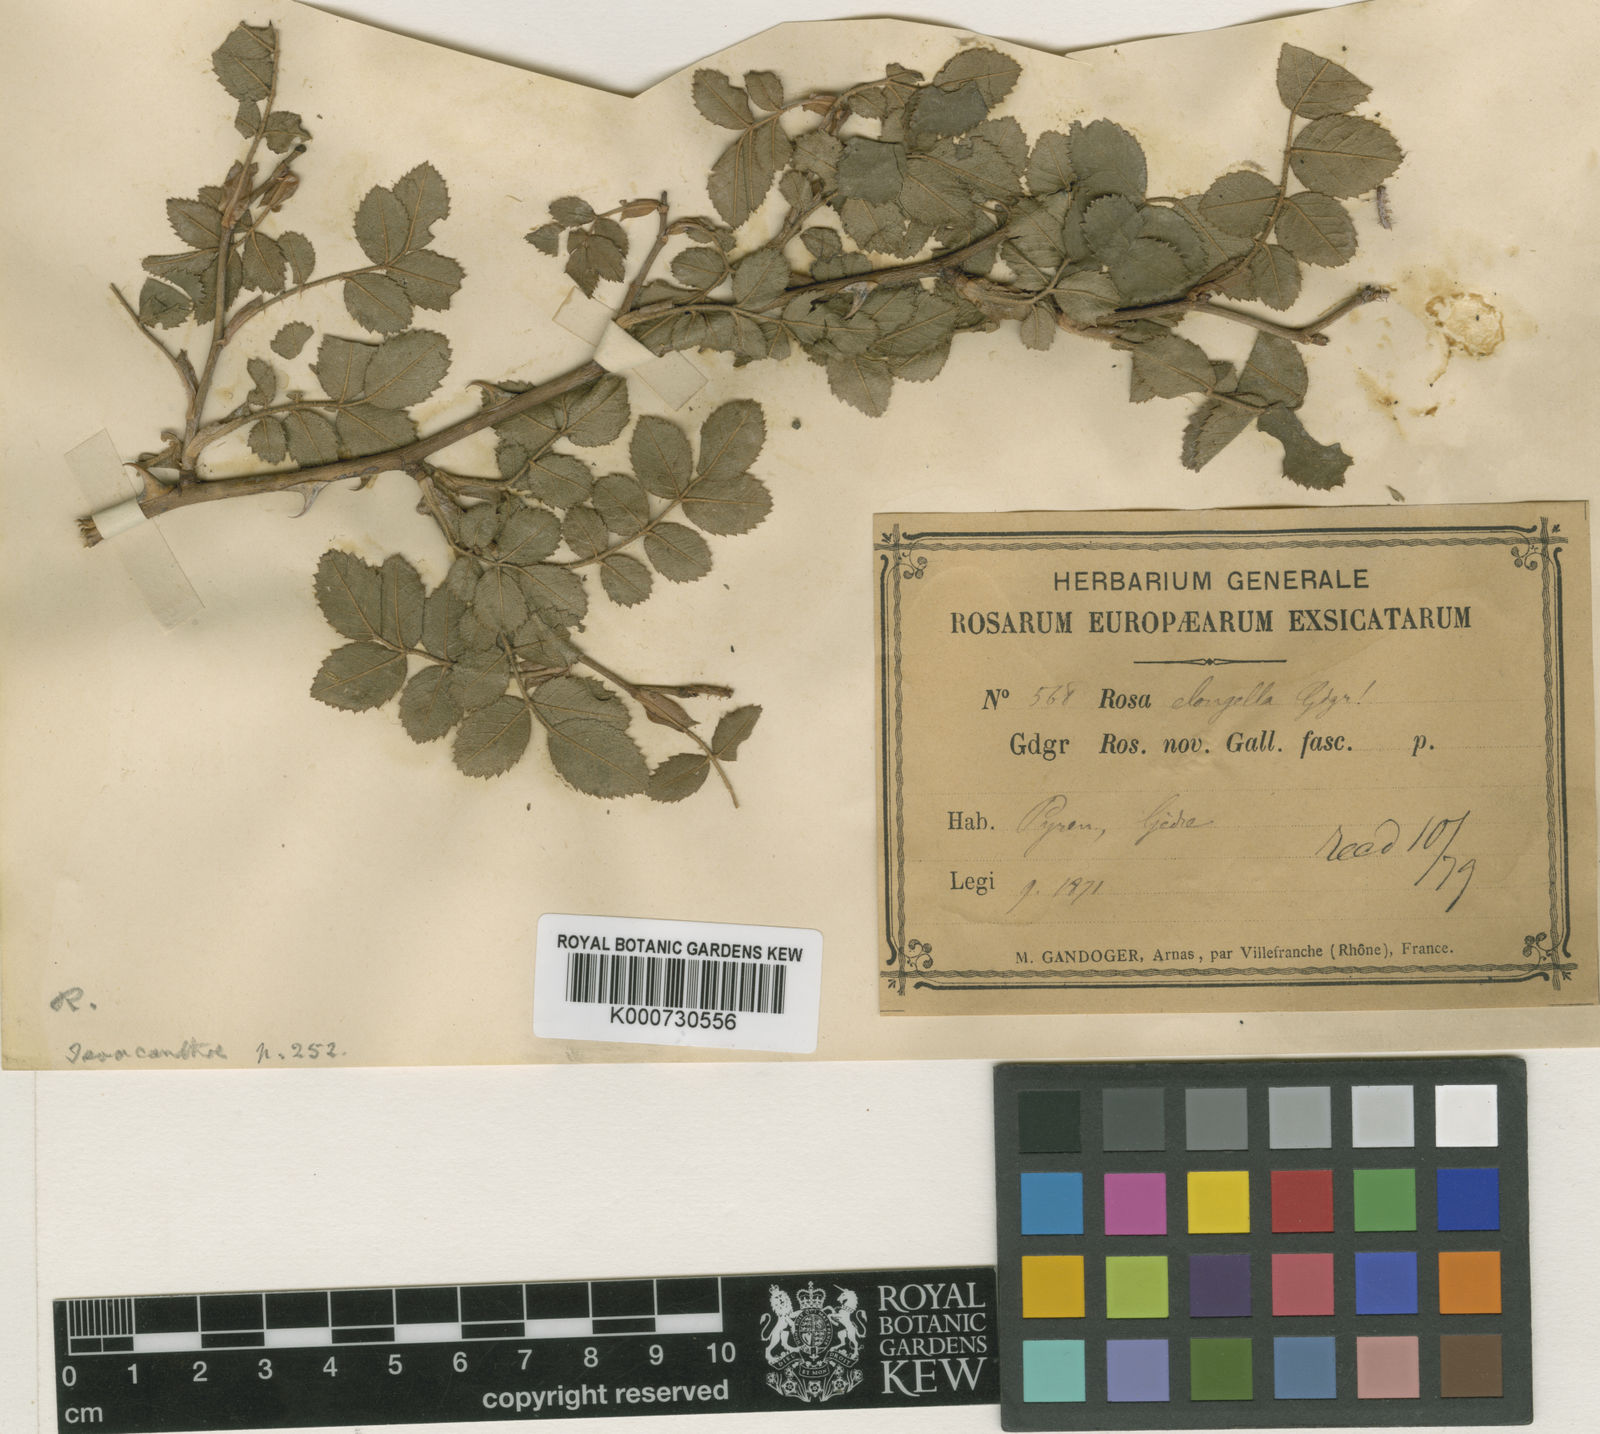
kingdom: Plantae
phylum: Tracheophyta
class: Magnoliopsida
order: Rosales
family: Rosaceae
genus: Rosa
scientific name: Rosa
